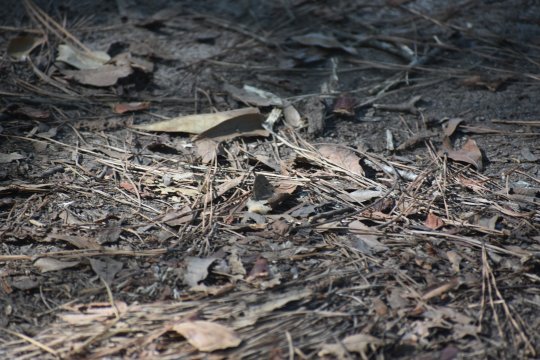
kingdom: Animalia
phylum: Arthropoda
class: Insecta
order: Lepidoptera
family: Nymphalidae
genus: Hermeuptychia
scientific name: Hermeuptychia hermes
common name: Carolina Satyr
